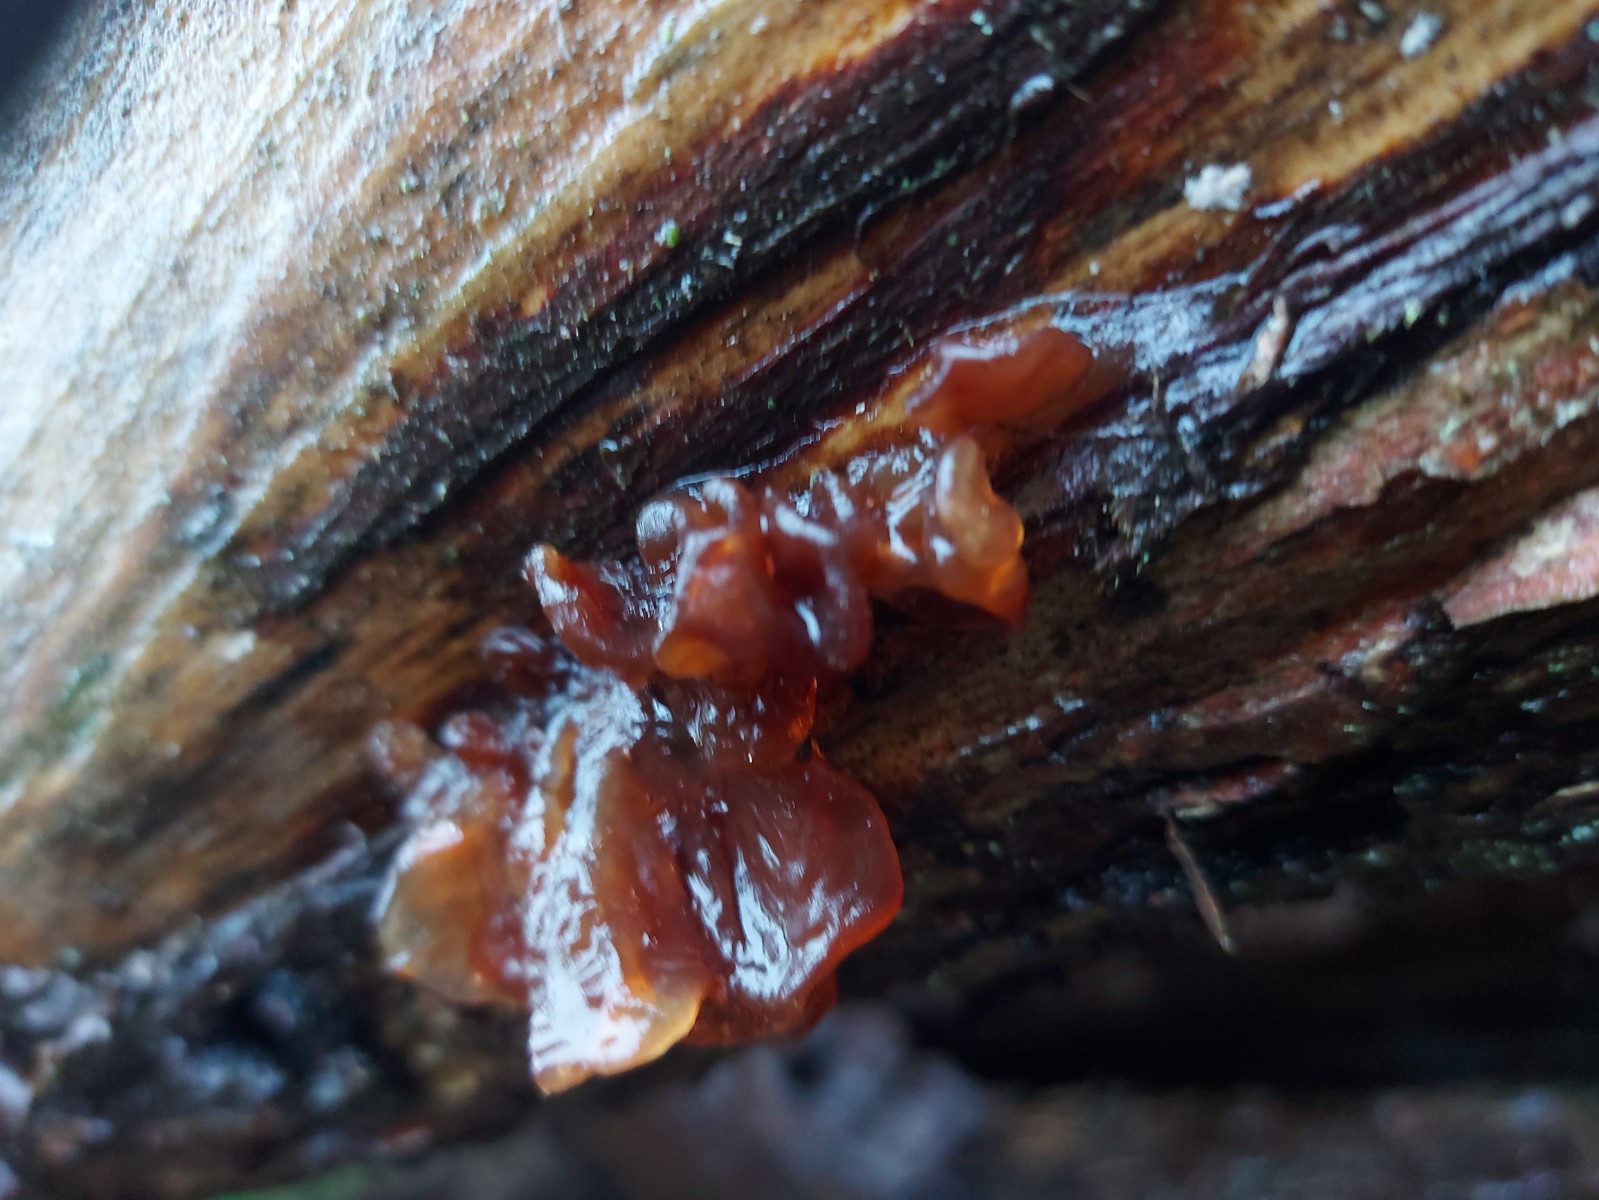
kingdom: Fungi
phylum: Basidiomycota
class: Tremellomycetes
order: Tremellales
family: Tremellaceae
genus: Phaeotremella
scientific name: Phaeotremella foliacea
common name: brun bævresvamp
